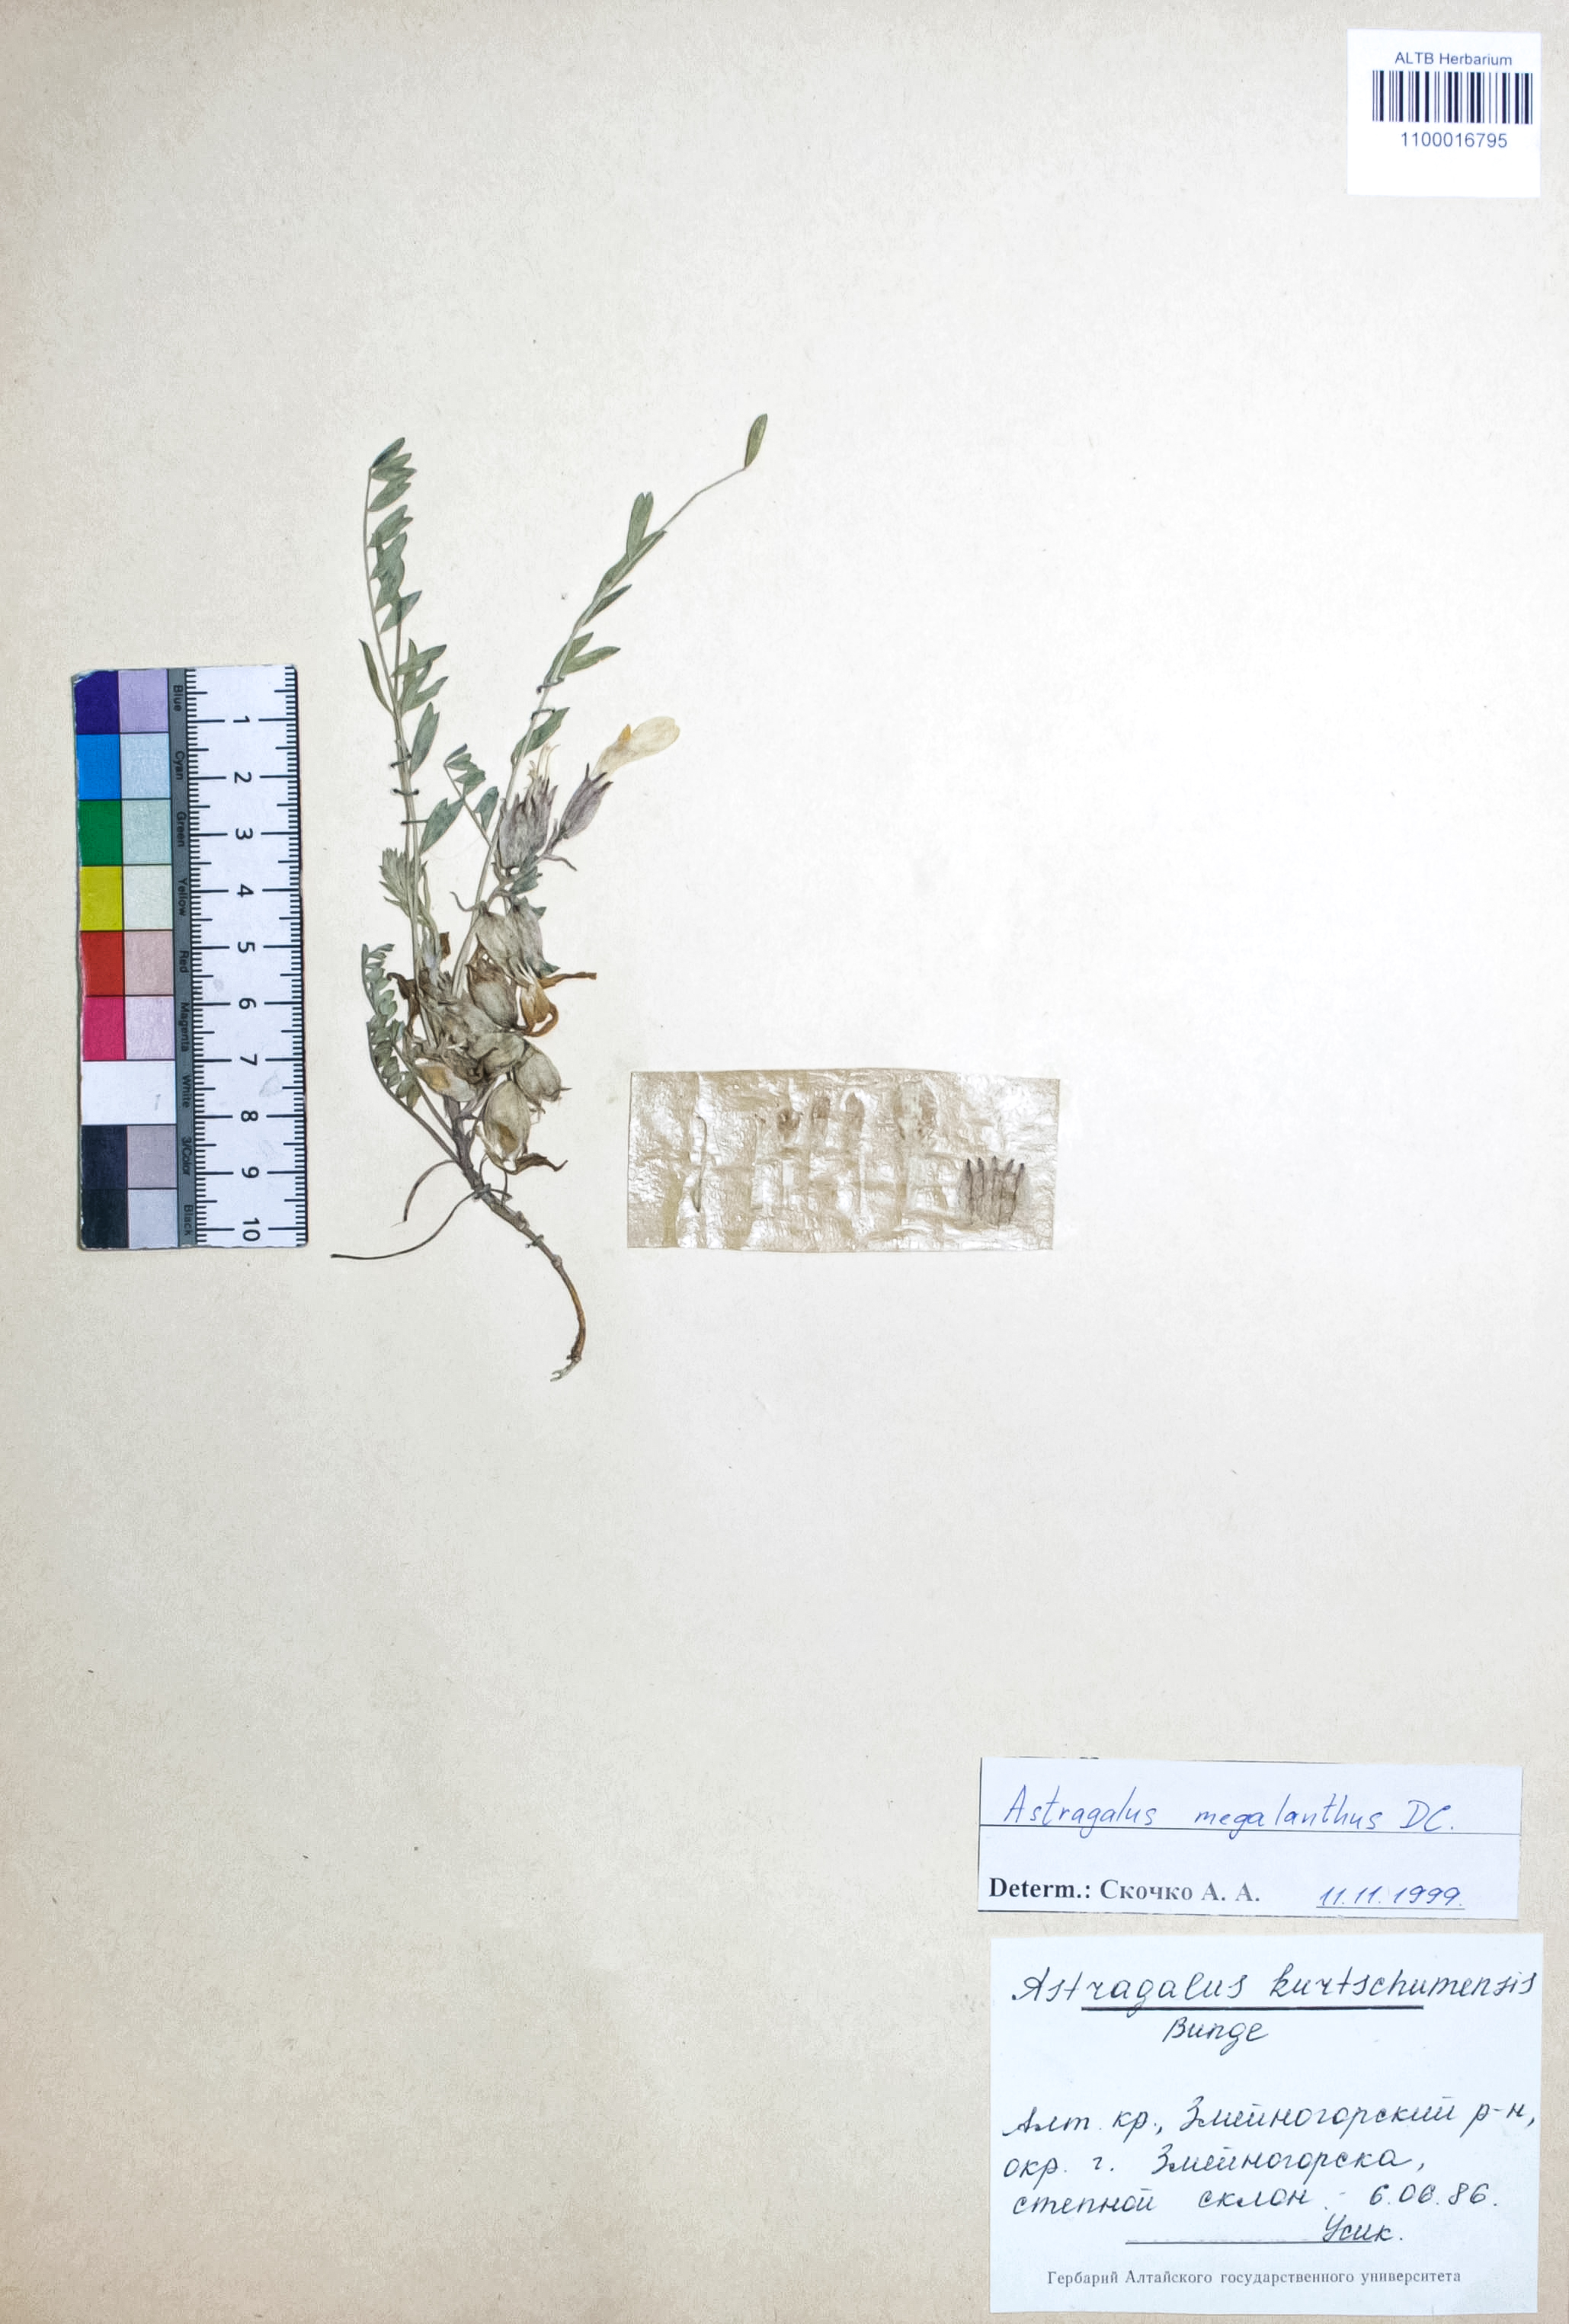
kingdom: Plantae
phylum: Tracheophyta
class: Magnoliopsida
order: Fabales
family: Fabaceae
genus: Astragalus
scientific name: Astragalus leptostachys
